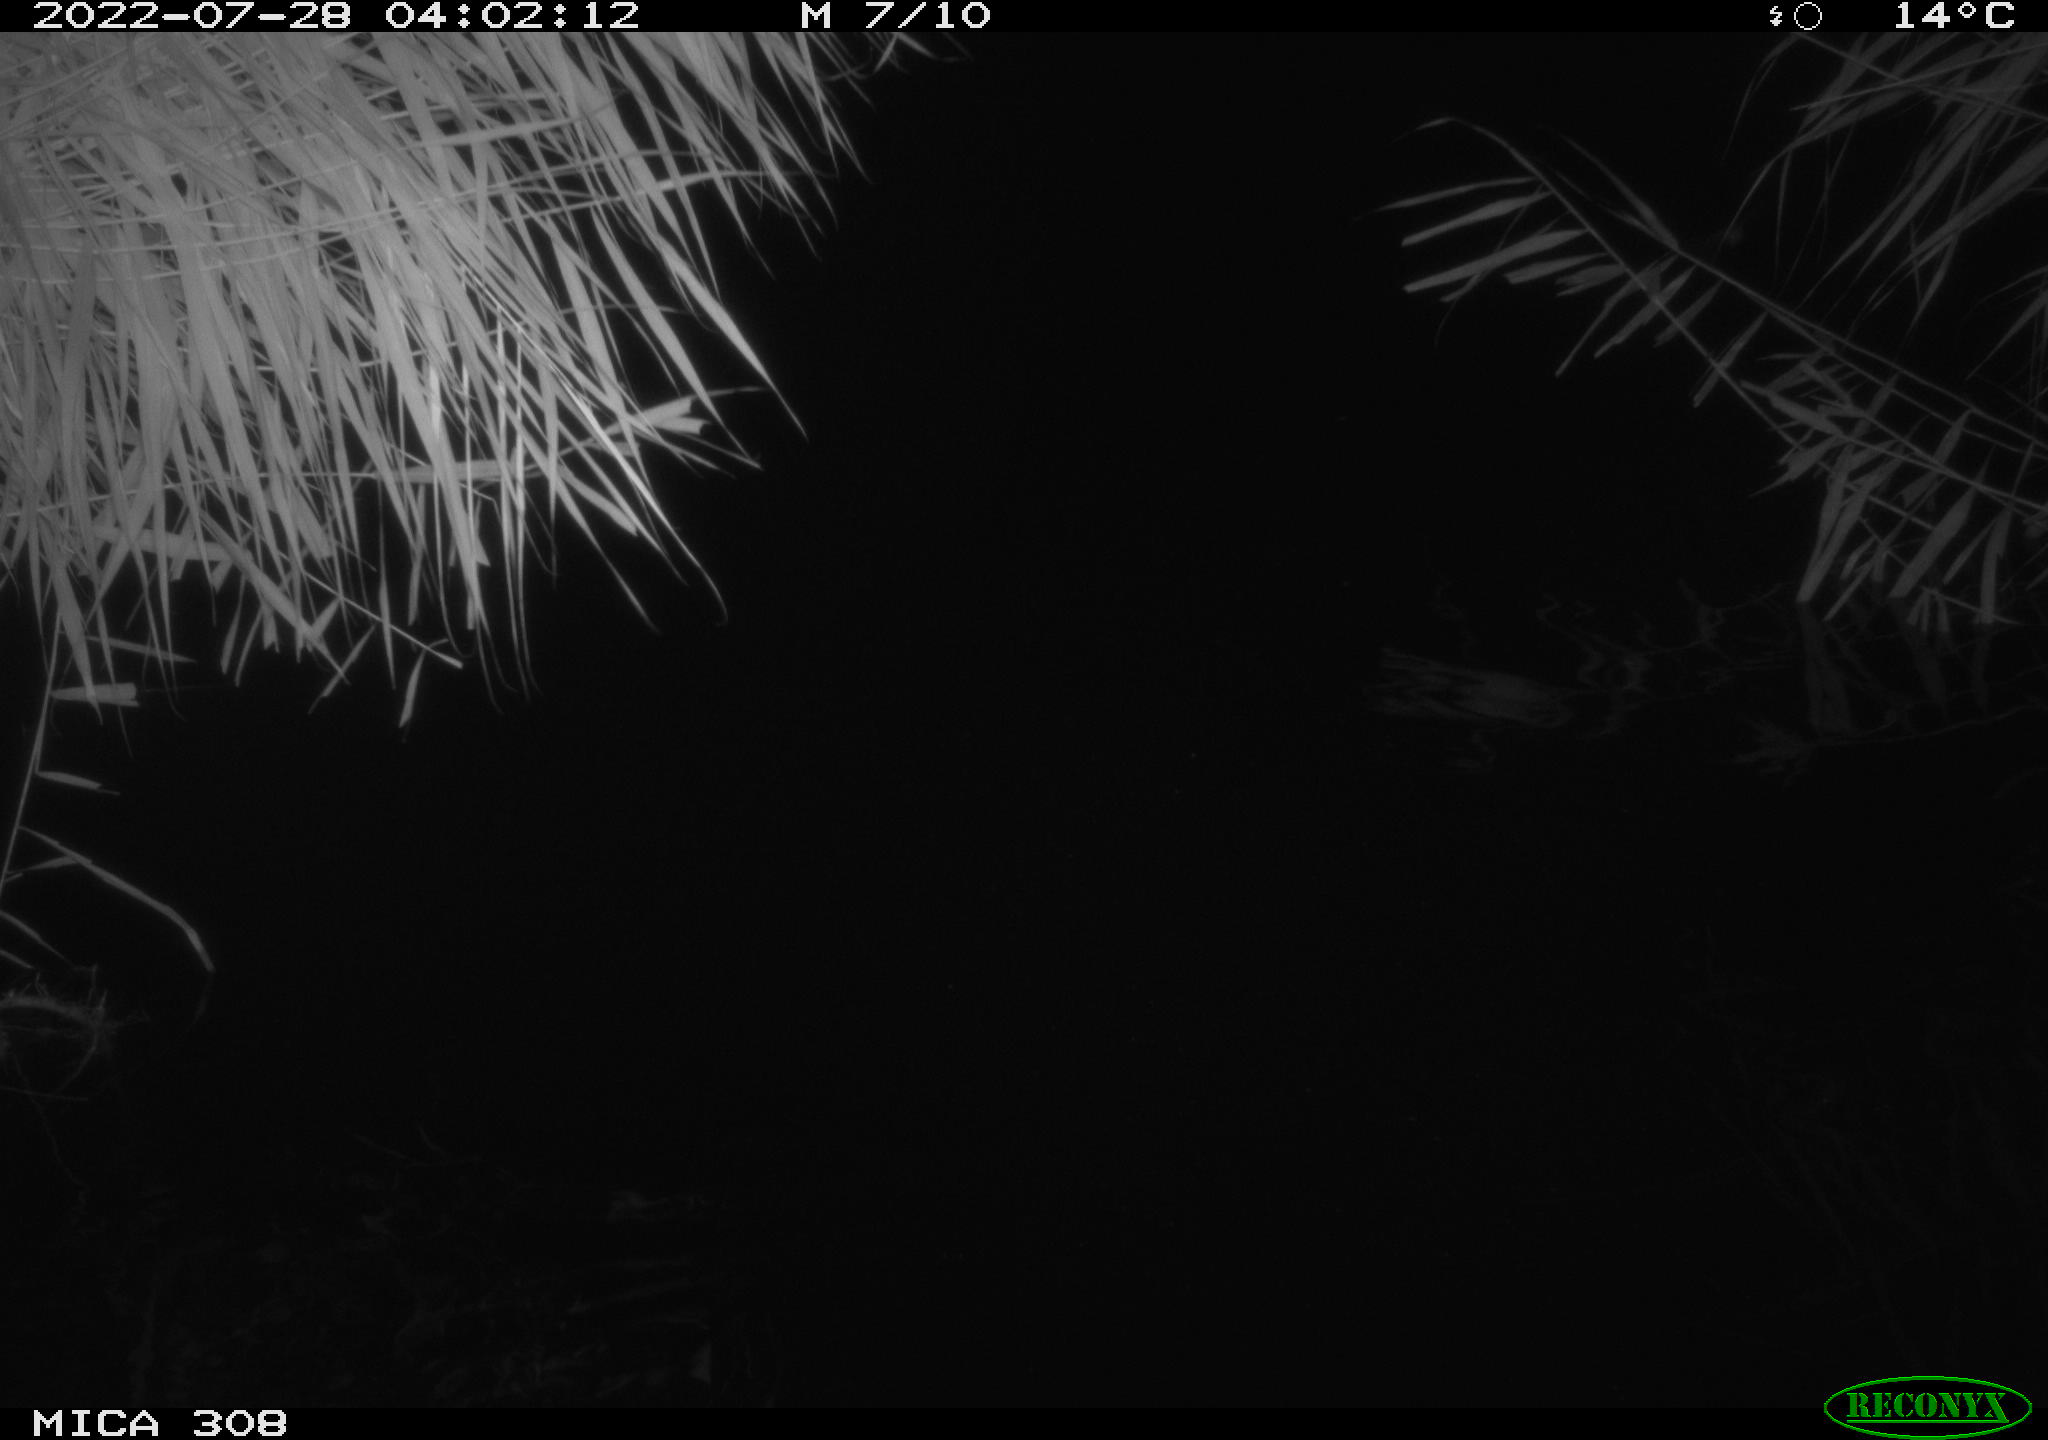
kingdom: Animalia
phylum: Chordata
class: Mammalia
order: Rodentia
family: Muridae
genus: Rattus
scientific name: Rattus norvegicus
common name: Brown rat
